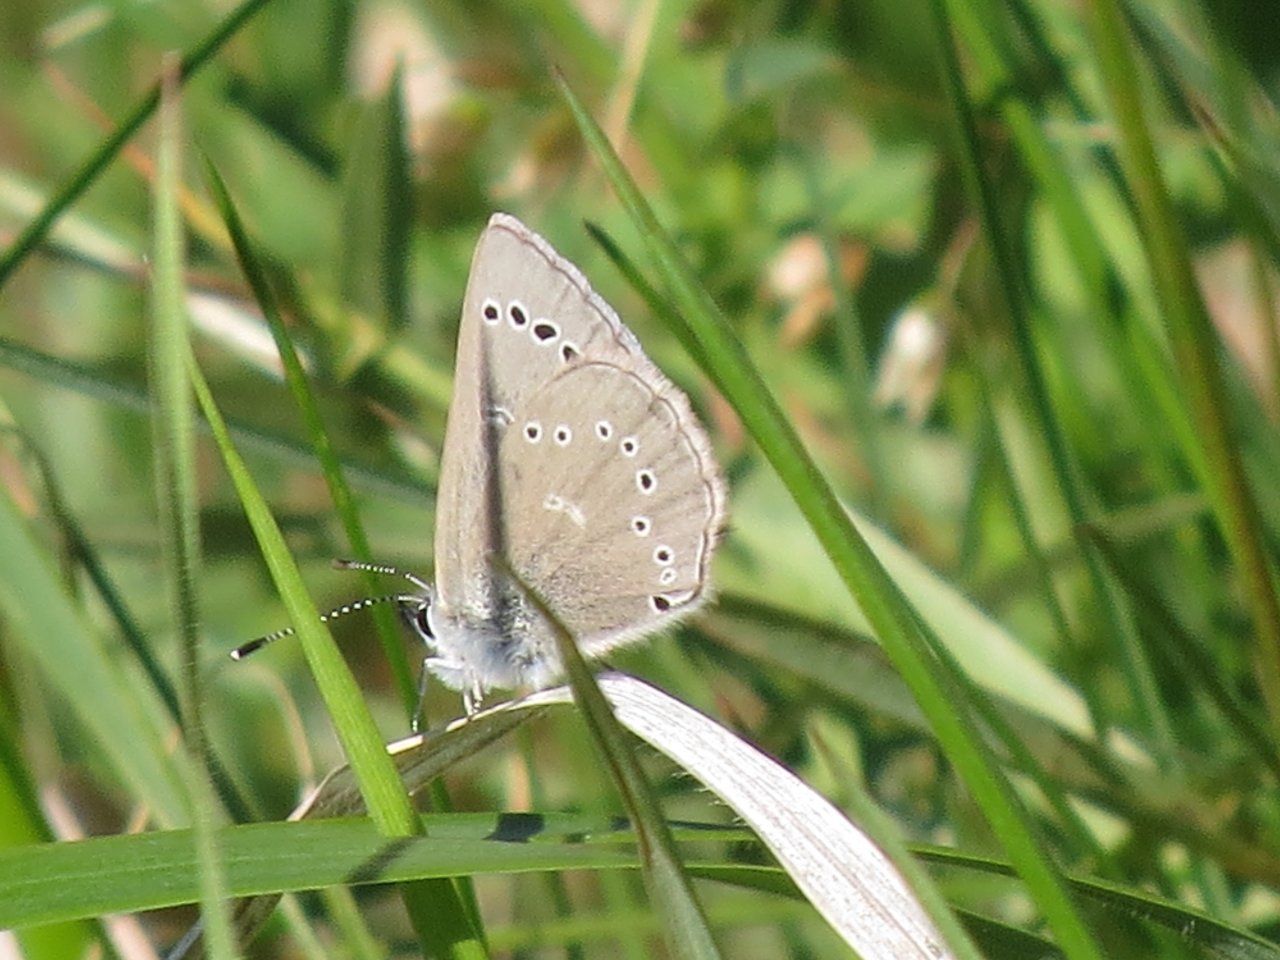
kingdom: Animalia
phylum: Arthropoda
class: Insecta
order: Lepidoptera
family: Lycaenidae
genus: Glaucopsyche
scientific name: Glaucopsyche lygdamus
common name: Silvery Blue
